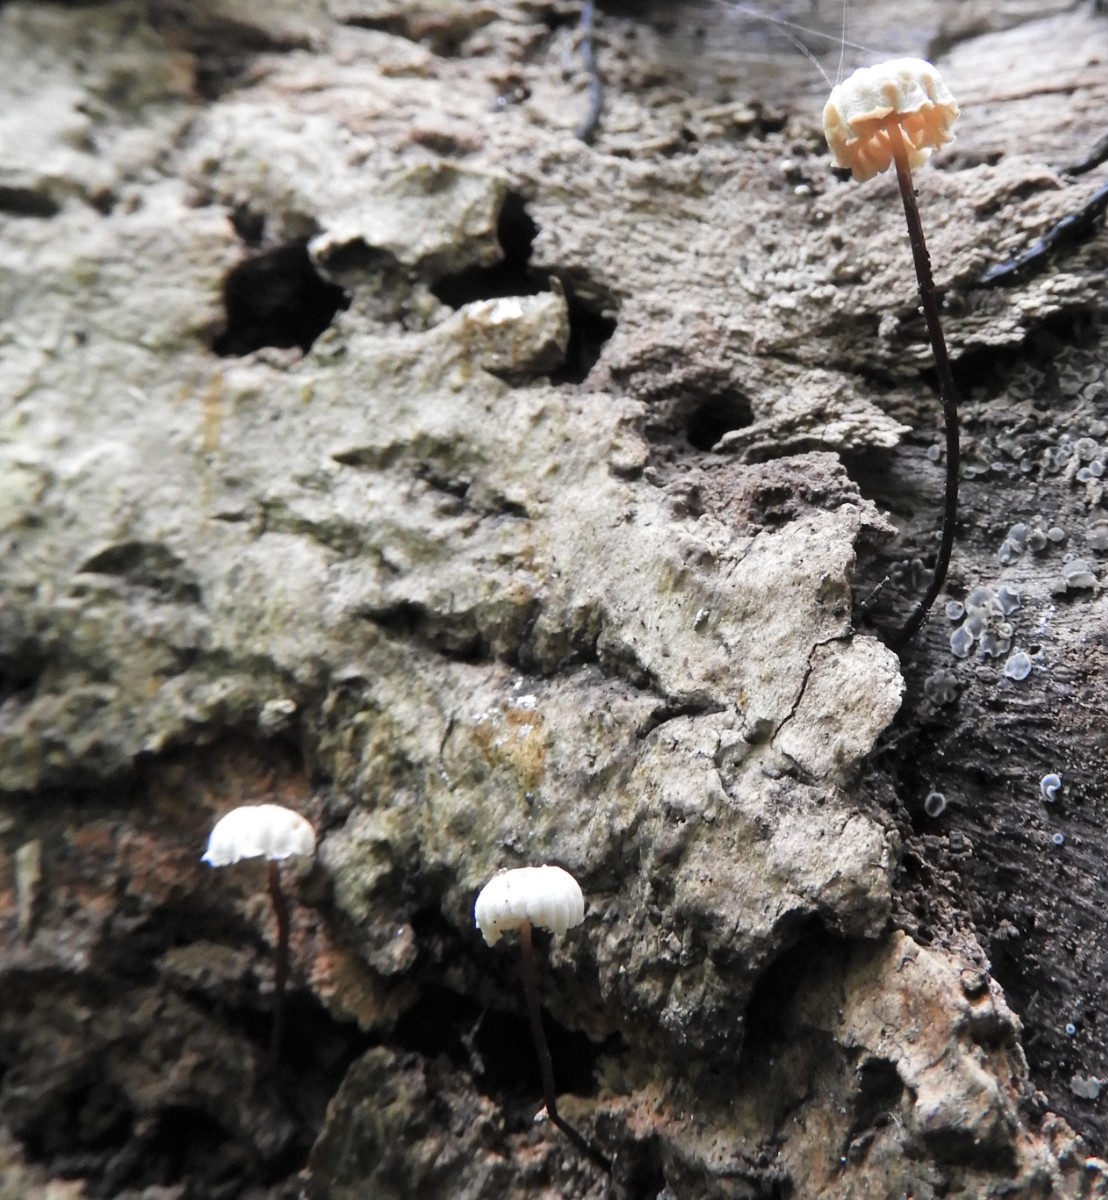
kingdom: Fungi
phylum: Basidiomycota
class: Agaricomycetes
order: Agaricales
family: Marasmiaceae
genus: Marasmius
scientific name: Marasmius rotula
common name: hjul-bruskhat
